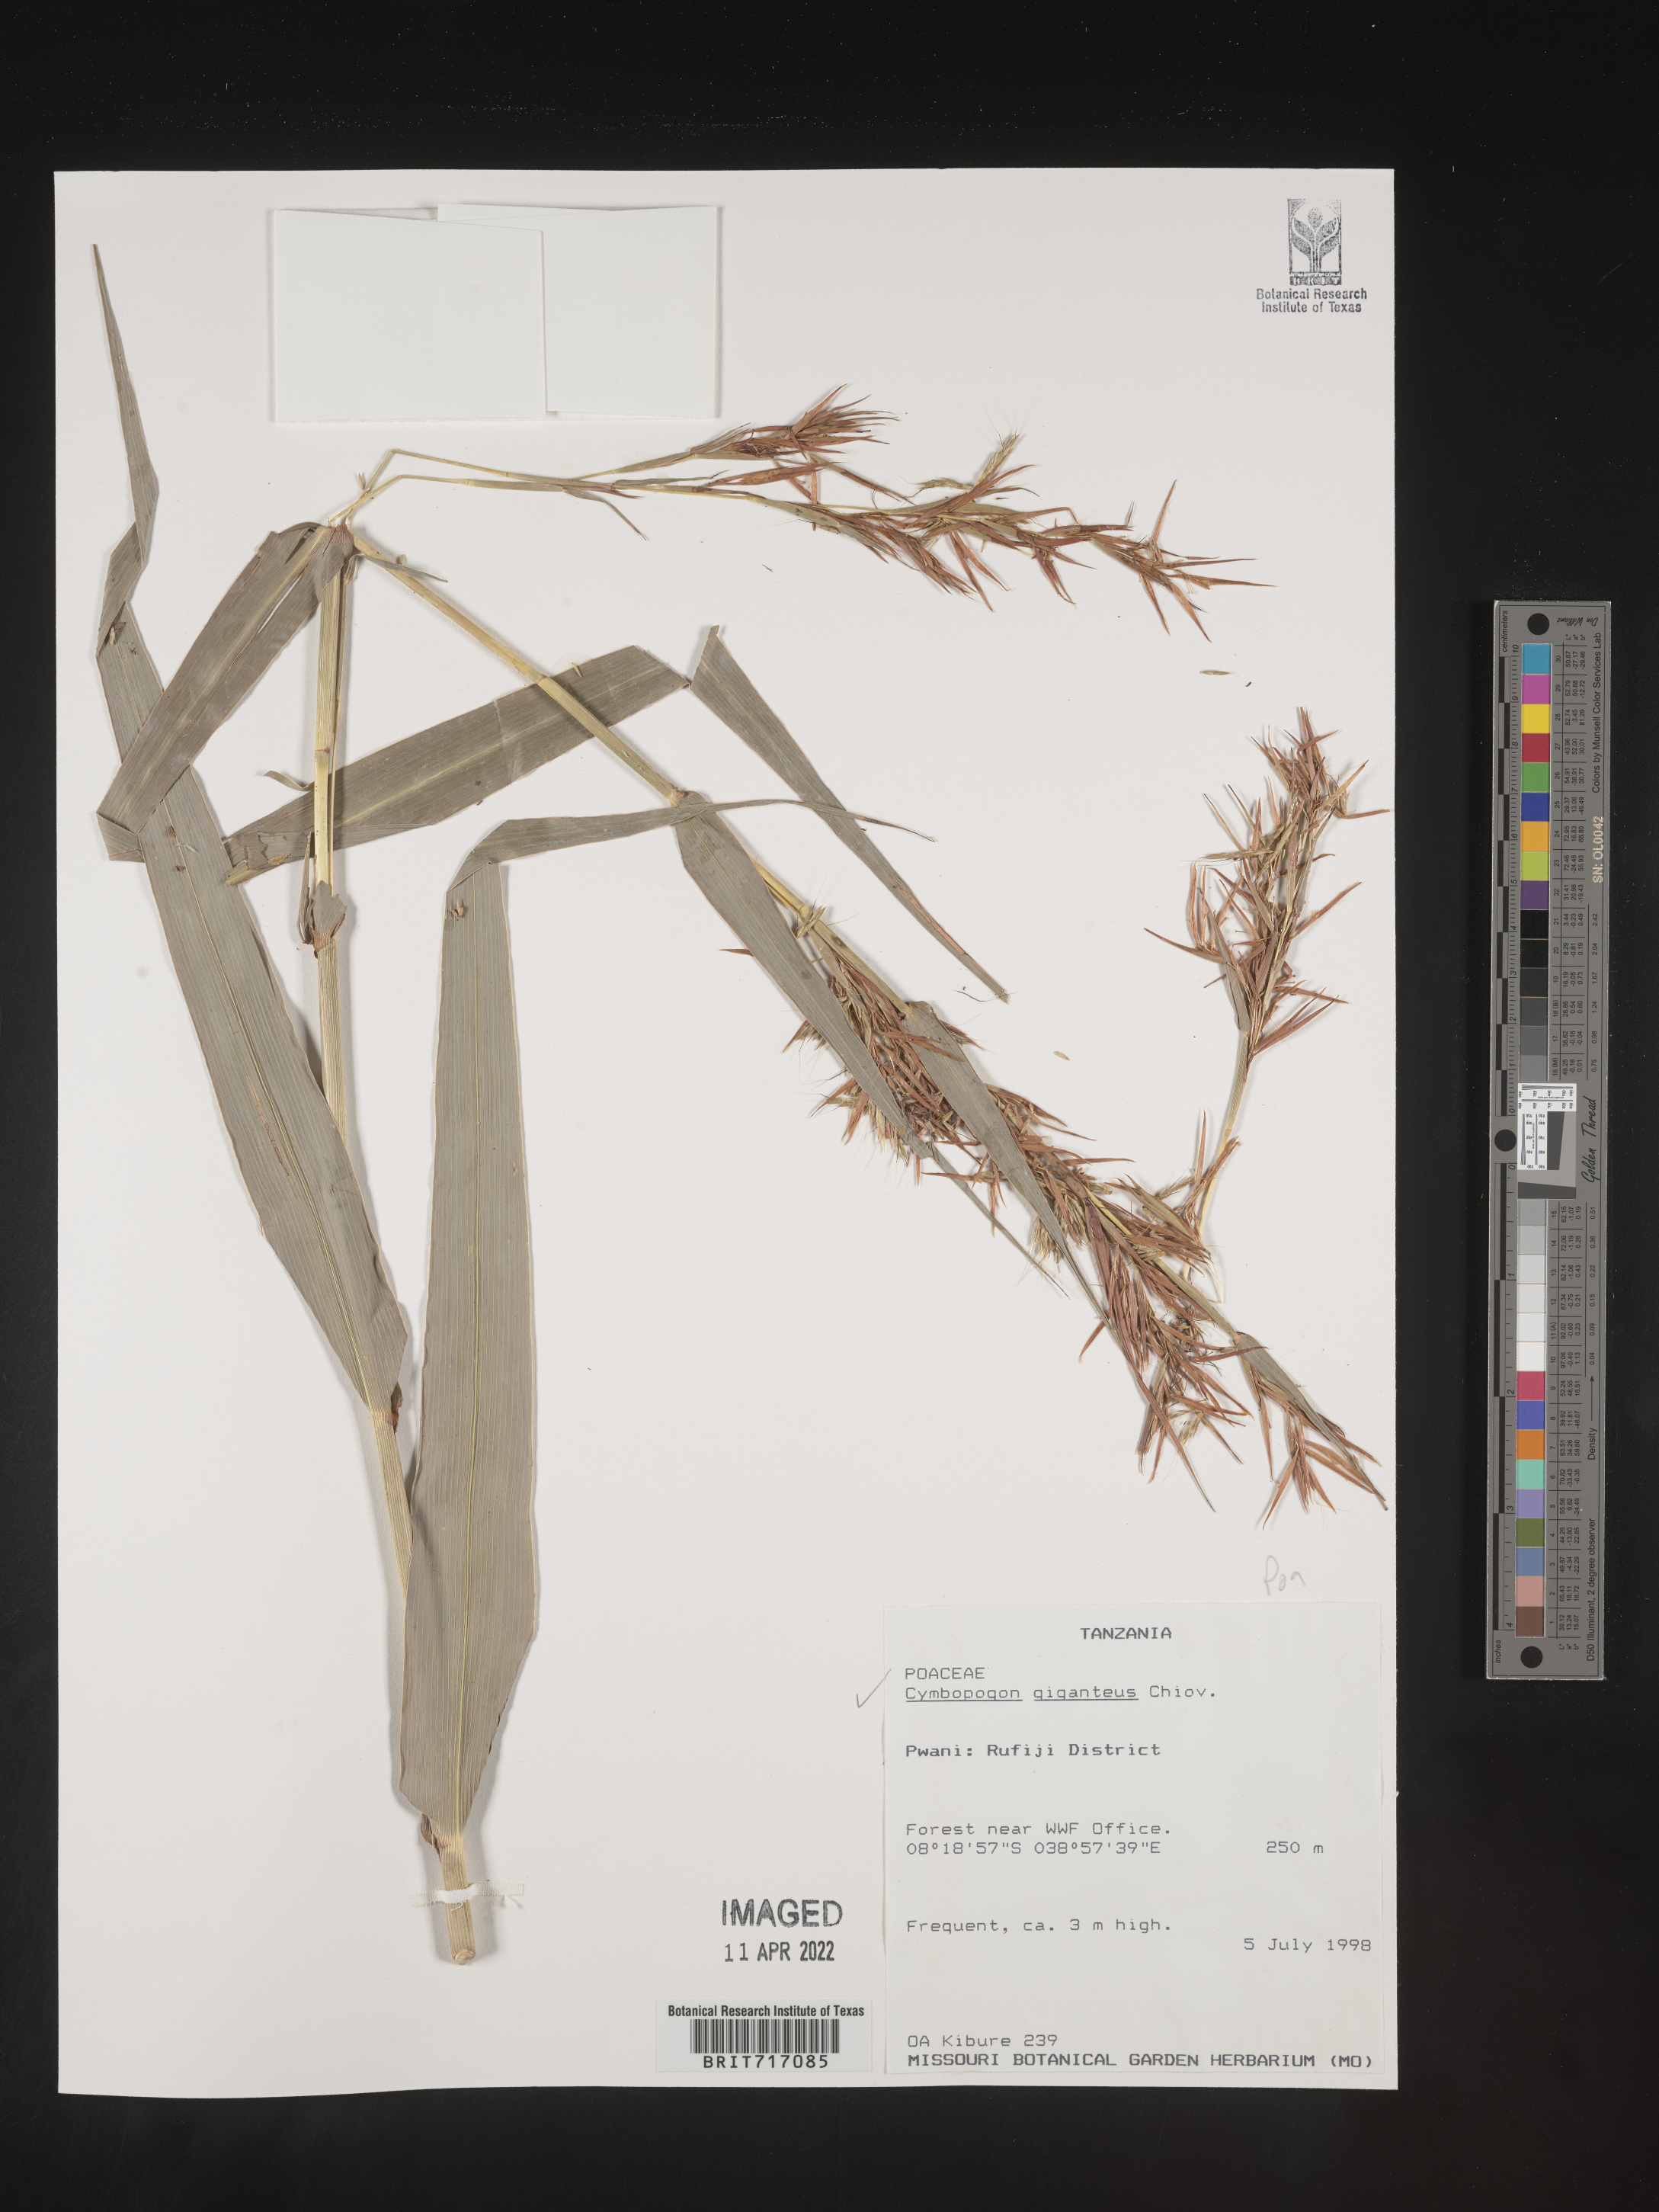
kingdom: Plantae
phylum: Tracheophyta
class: Liliopsida
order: Poales
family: Poaceae
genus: Cymbopogon
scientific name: Cymbopogon
